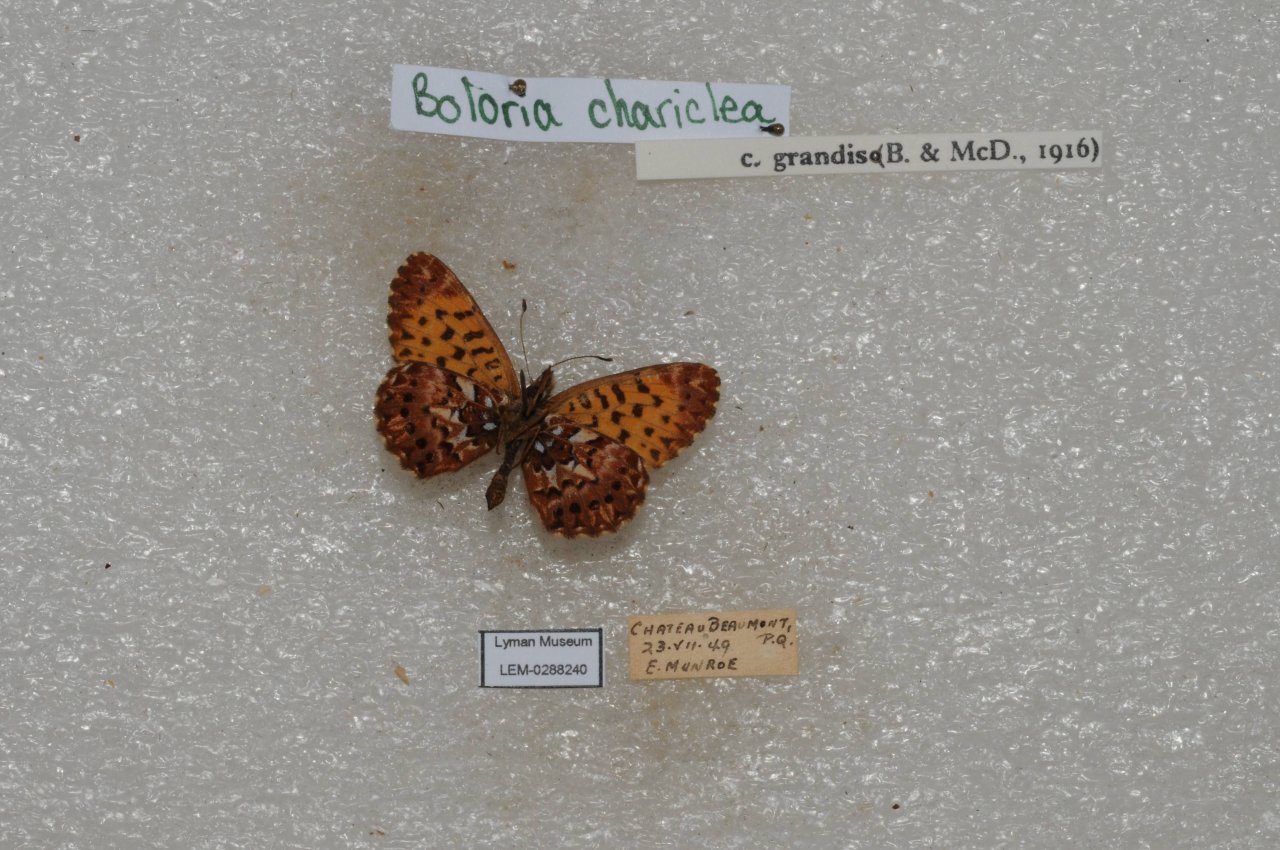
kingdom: Animalia
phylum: Arthropoda
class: Insecta
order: Lepidoptera
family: Nymphalidae
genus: Boloria
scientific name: Boloria chariclea
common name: Arctic Fritillary
